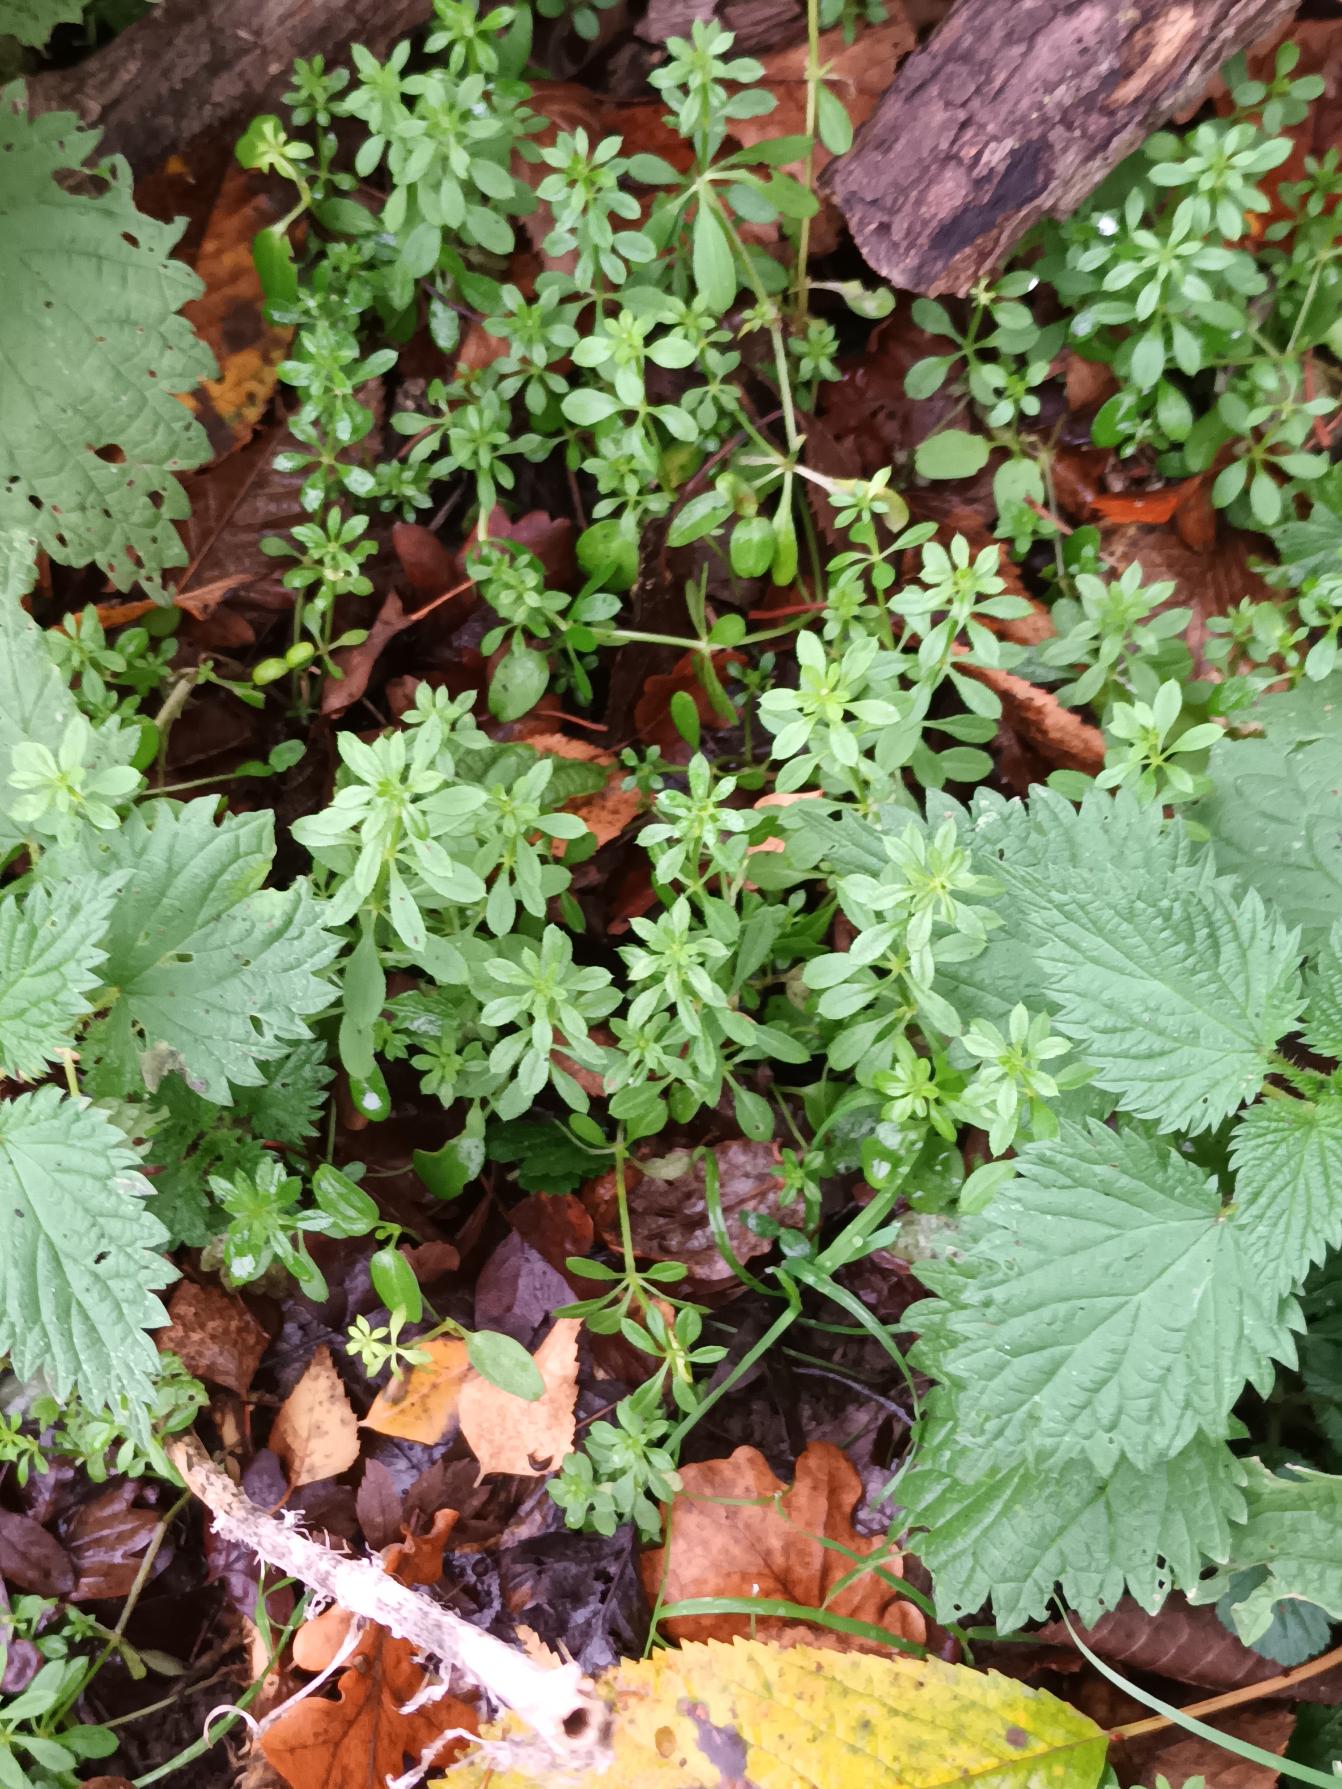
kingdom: Plantae
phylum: Tracheophyta
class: Magnoliopsida
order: Gentianales
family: Rubiaceae
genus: Galium
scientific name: Galium aparine
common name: Burre-snerre
